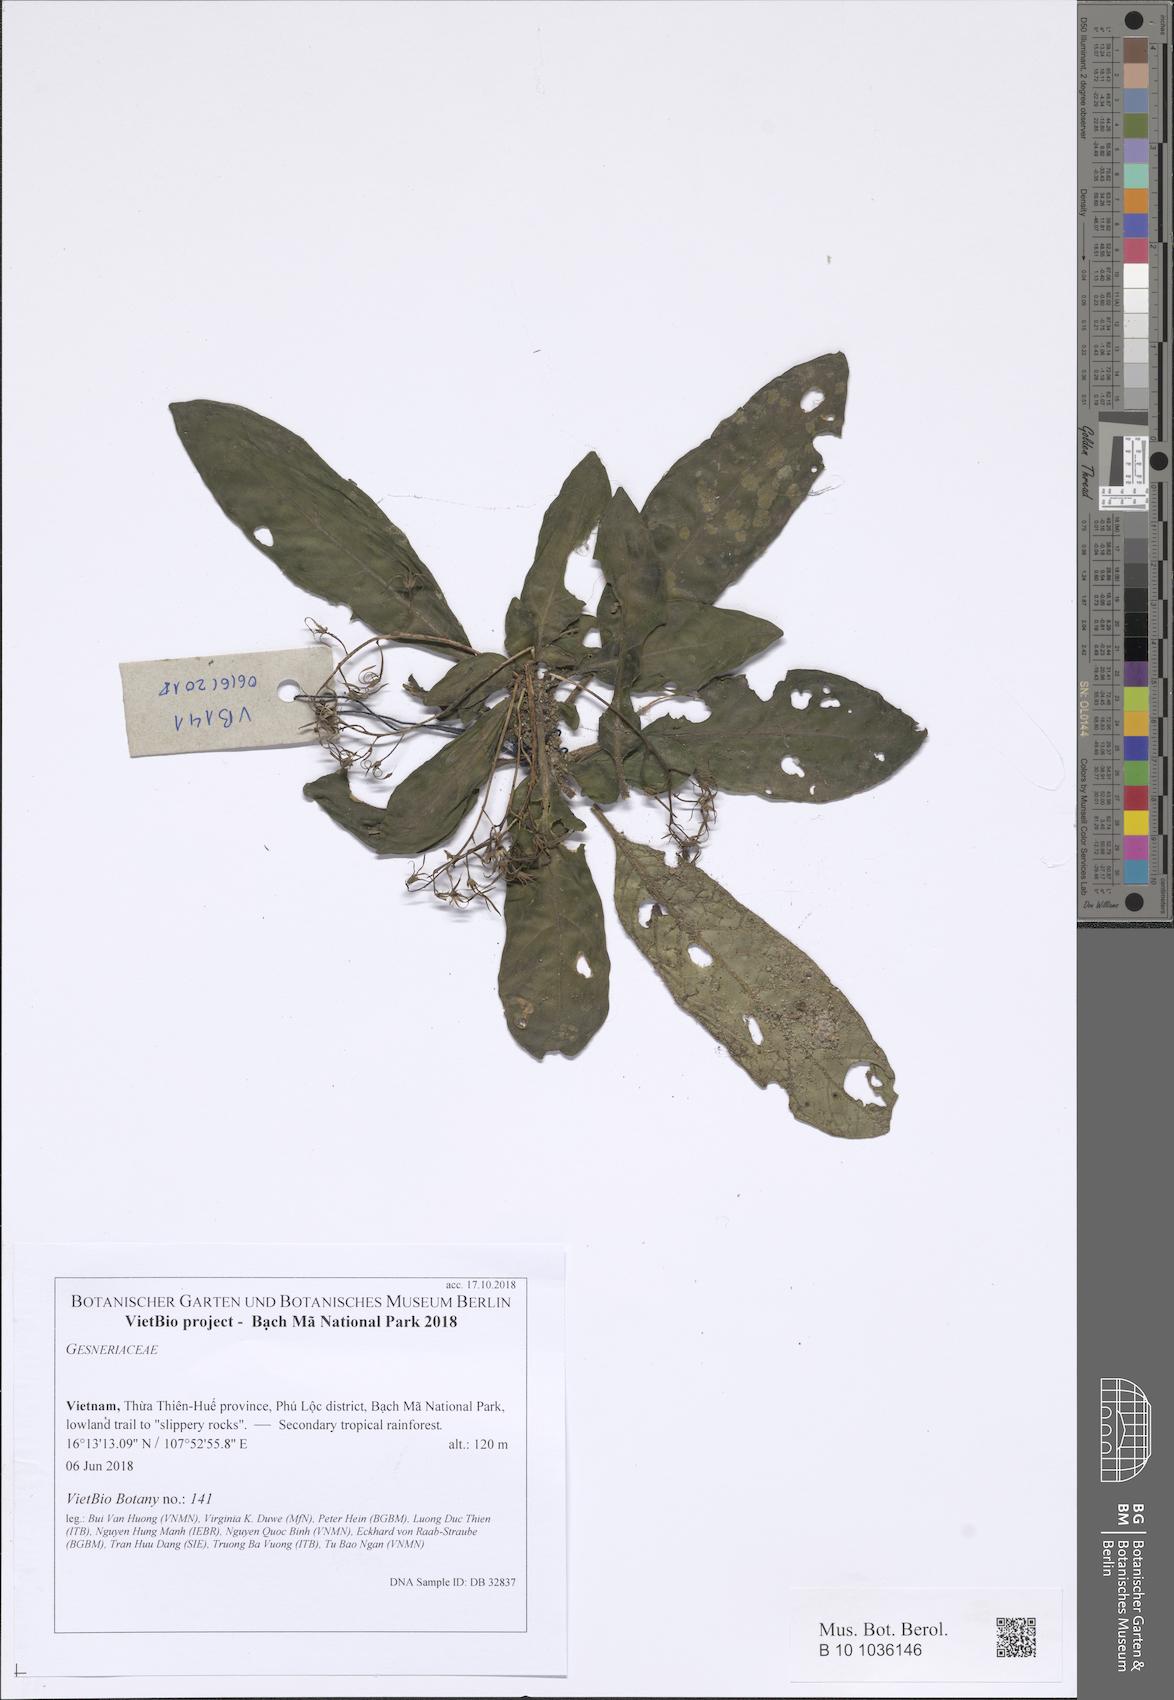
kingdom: Plantae
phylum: Tracheophyta
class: Magnoliopsida
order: Lamiales
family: Gesneriaceae
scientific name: Gesneriaceae
